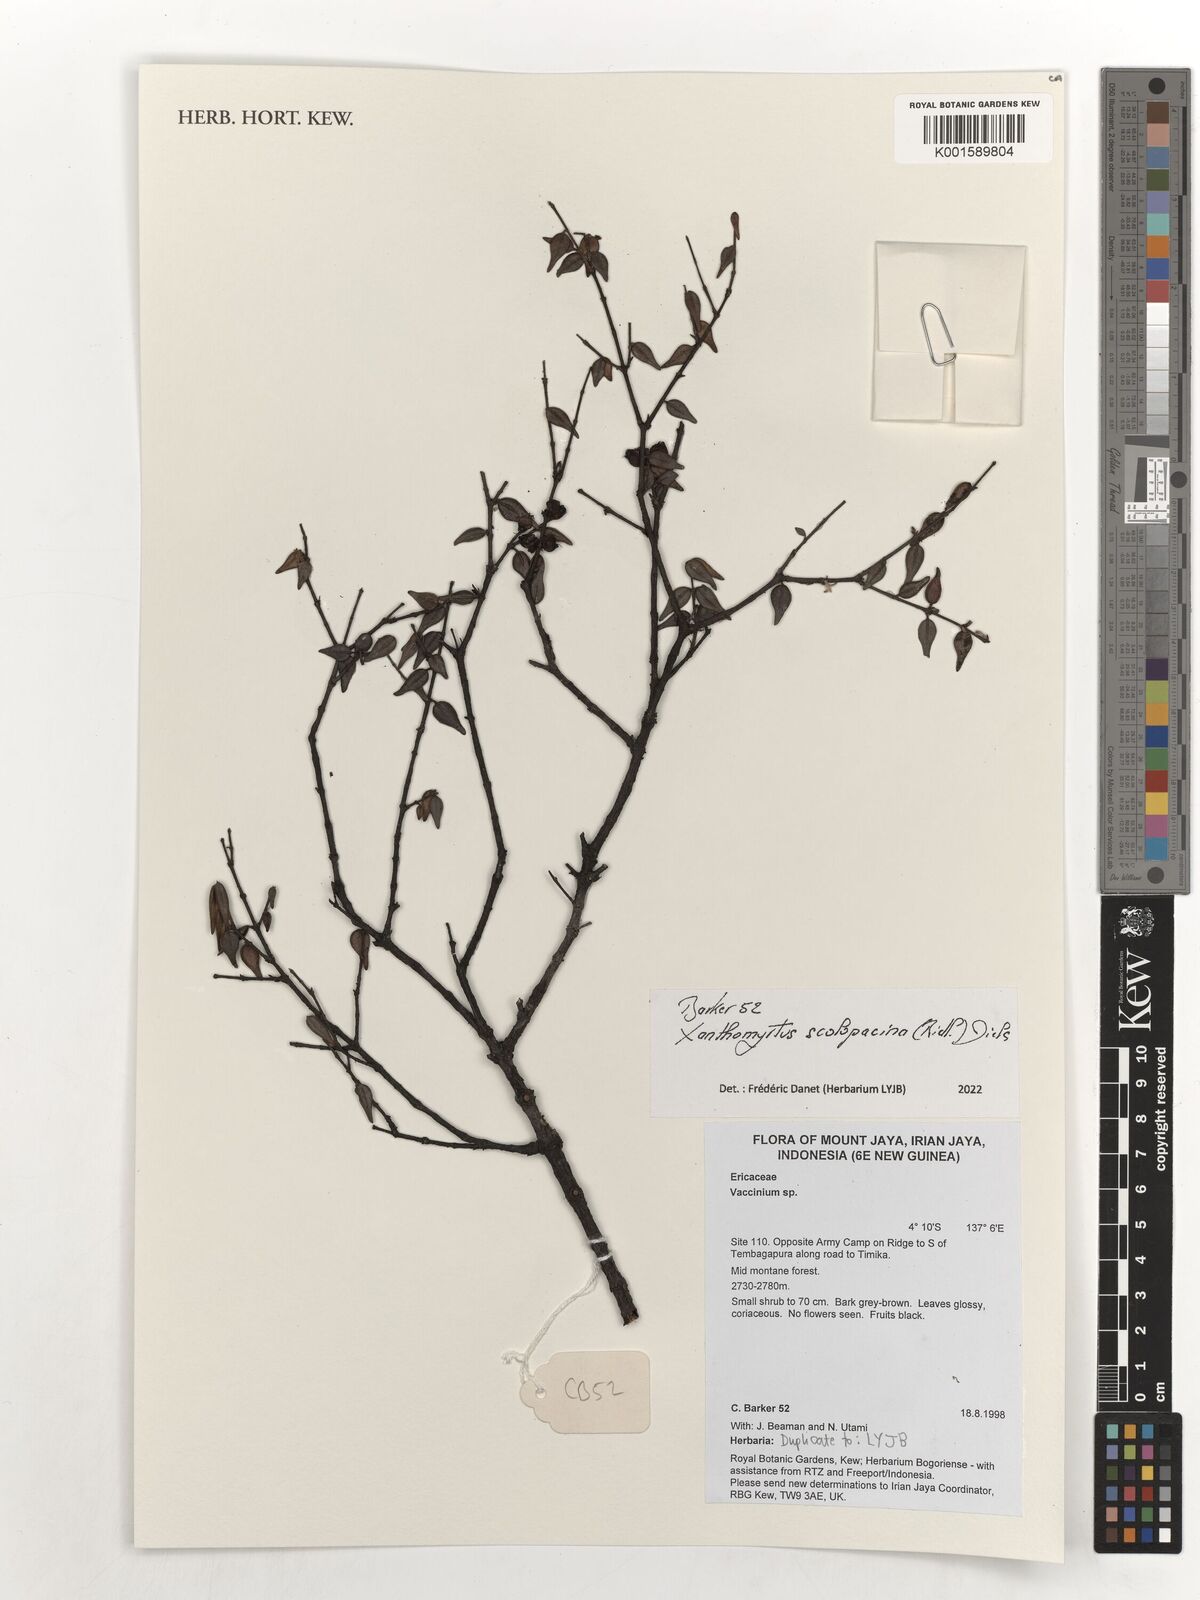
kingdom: Plantae
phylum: Tracheophyta
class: Magnoliopsida
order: Myrtales
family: Myrtaceae
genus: Xanthomyrtus
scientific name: Xanthomyrtus scolopacina
